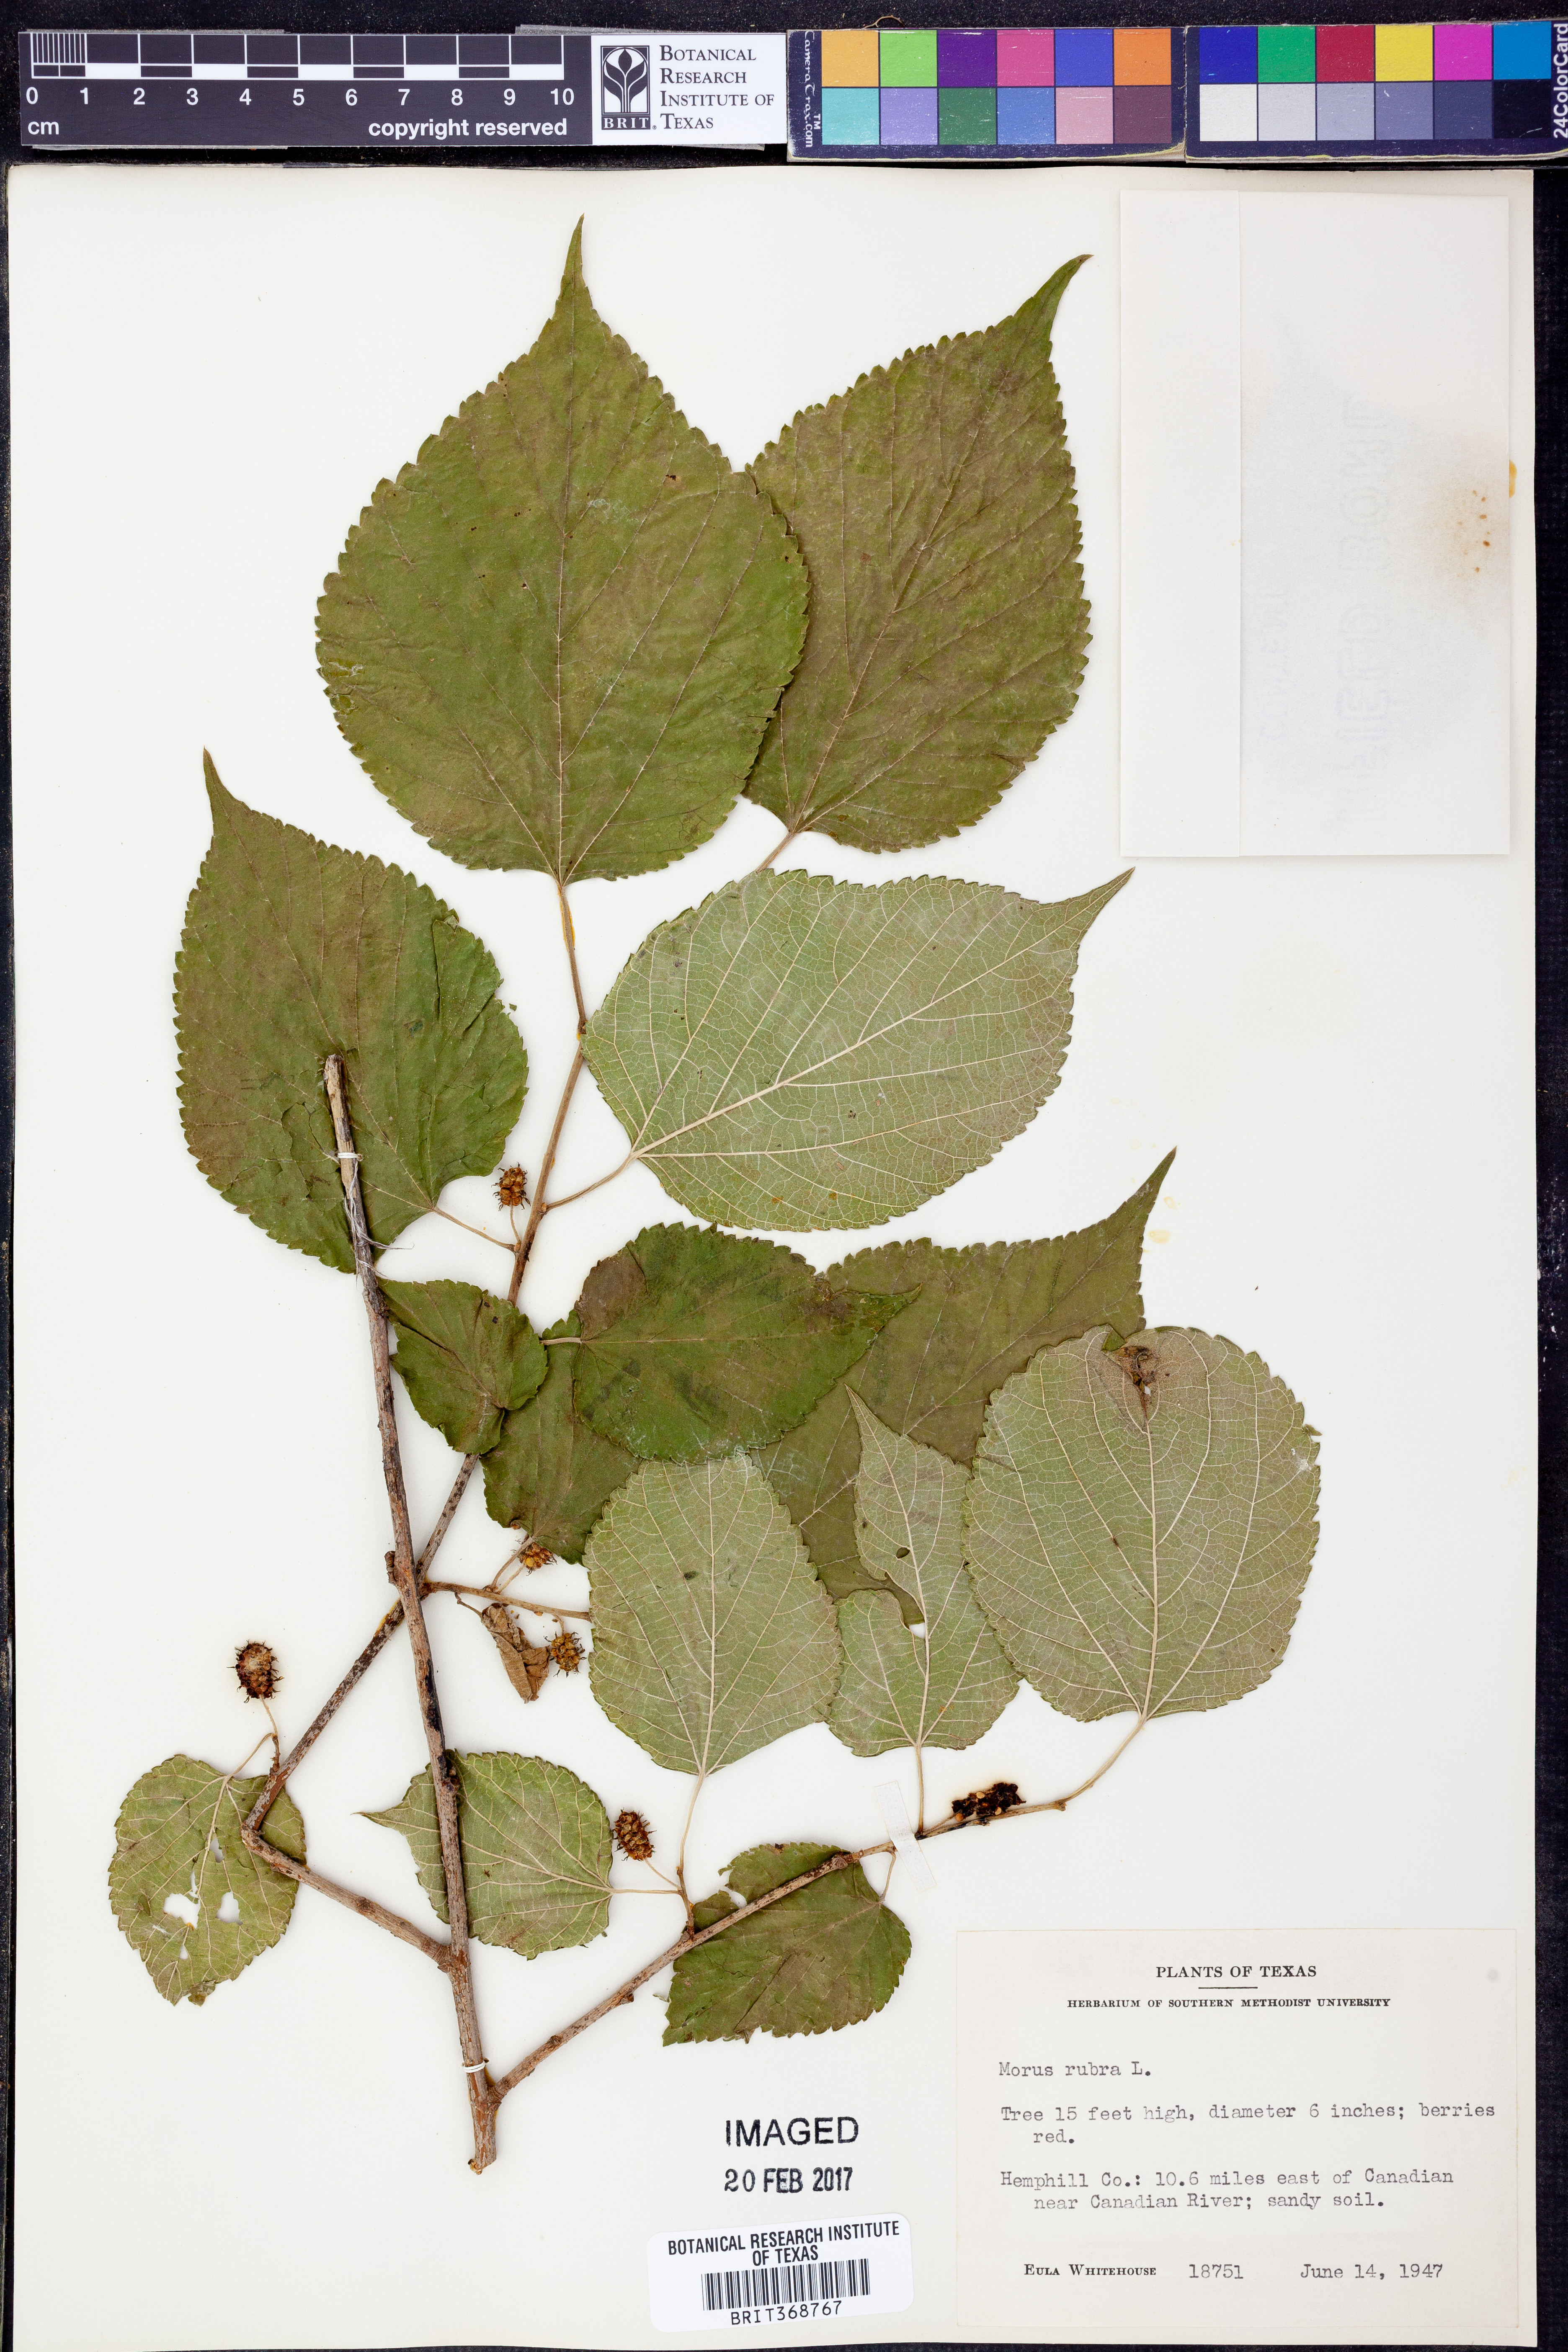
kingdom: Plantae
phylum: Tracheophyta
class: Magnoliopsida
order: Rosales
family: Moraceae
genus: Morus
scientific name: Morus rubra
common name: Red mulberry
